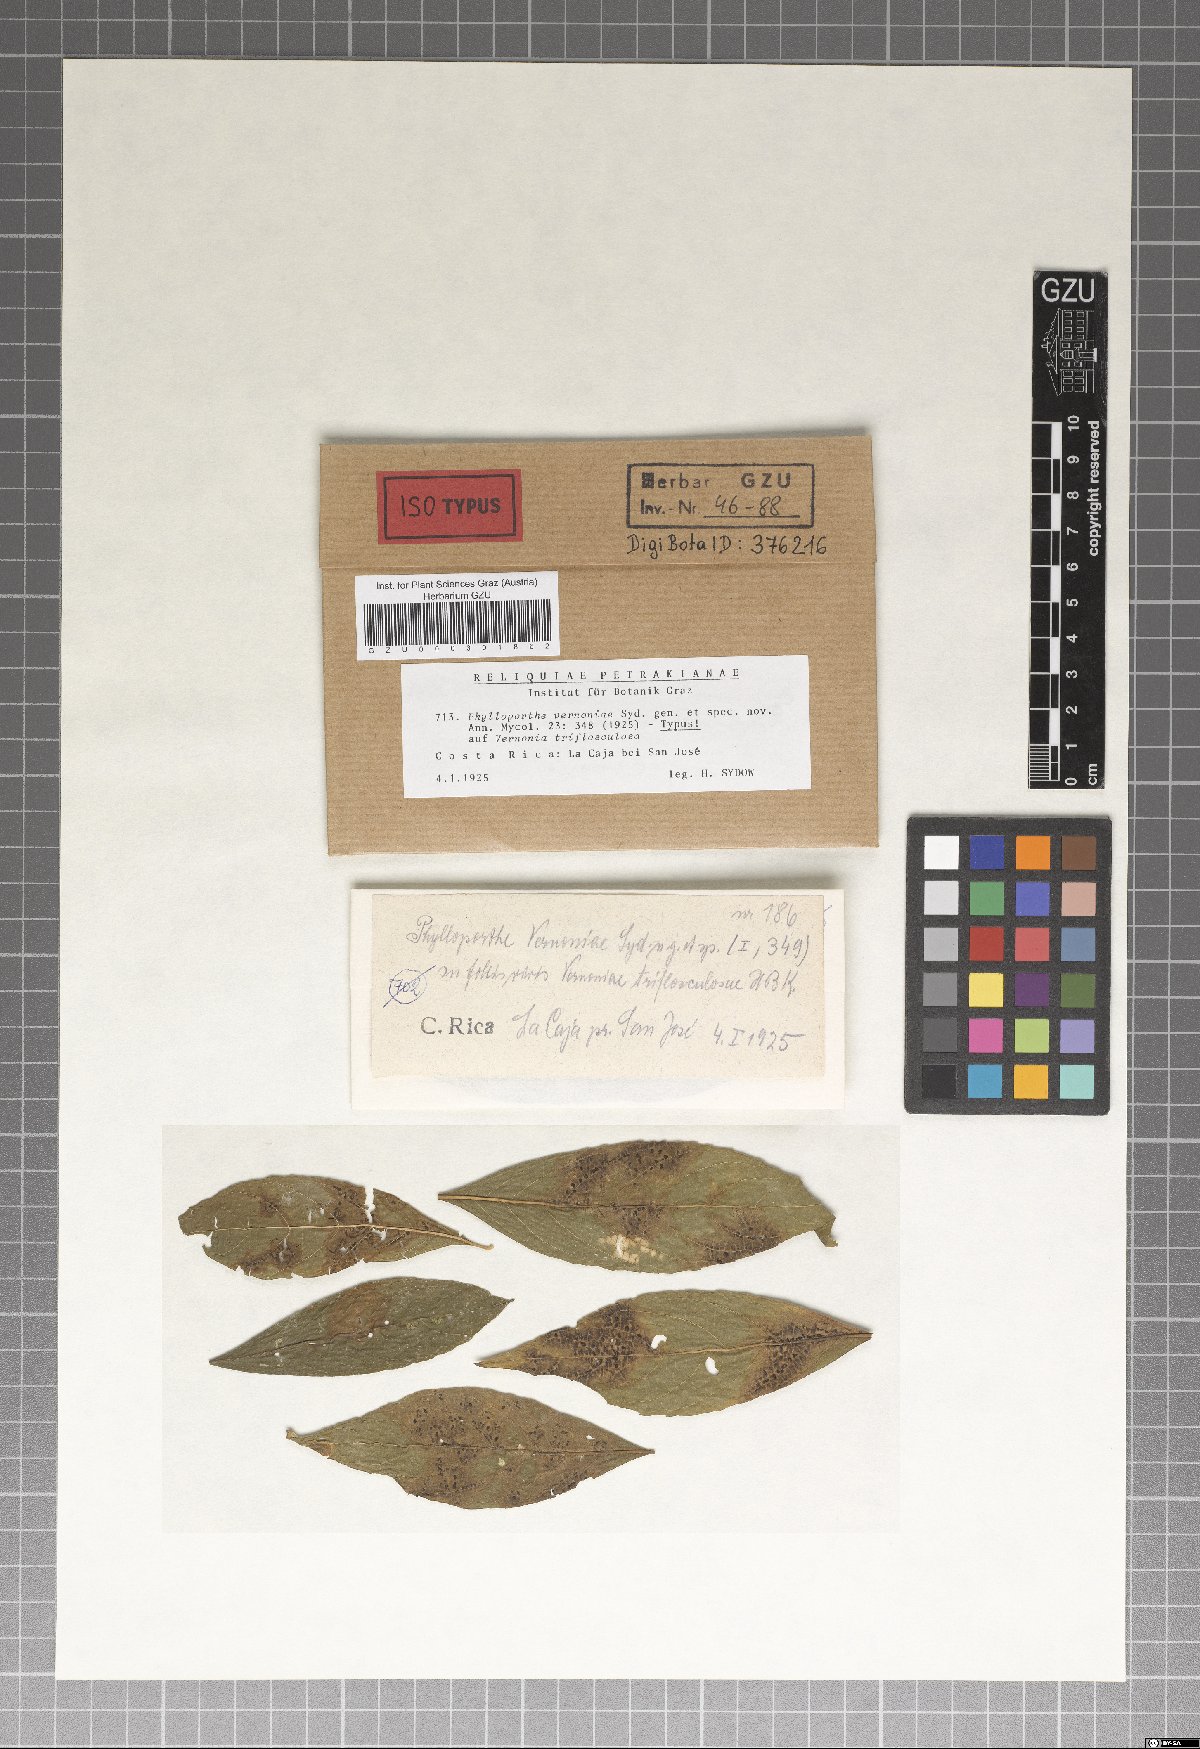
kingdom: Fungi
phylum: Ascomycota
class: Sordariomycetes
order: Diaporthales
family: Gnomoniaceae
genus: Phylloporthe
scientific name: Phylloporthe vernoniae
